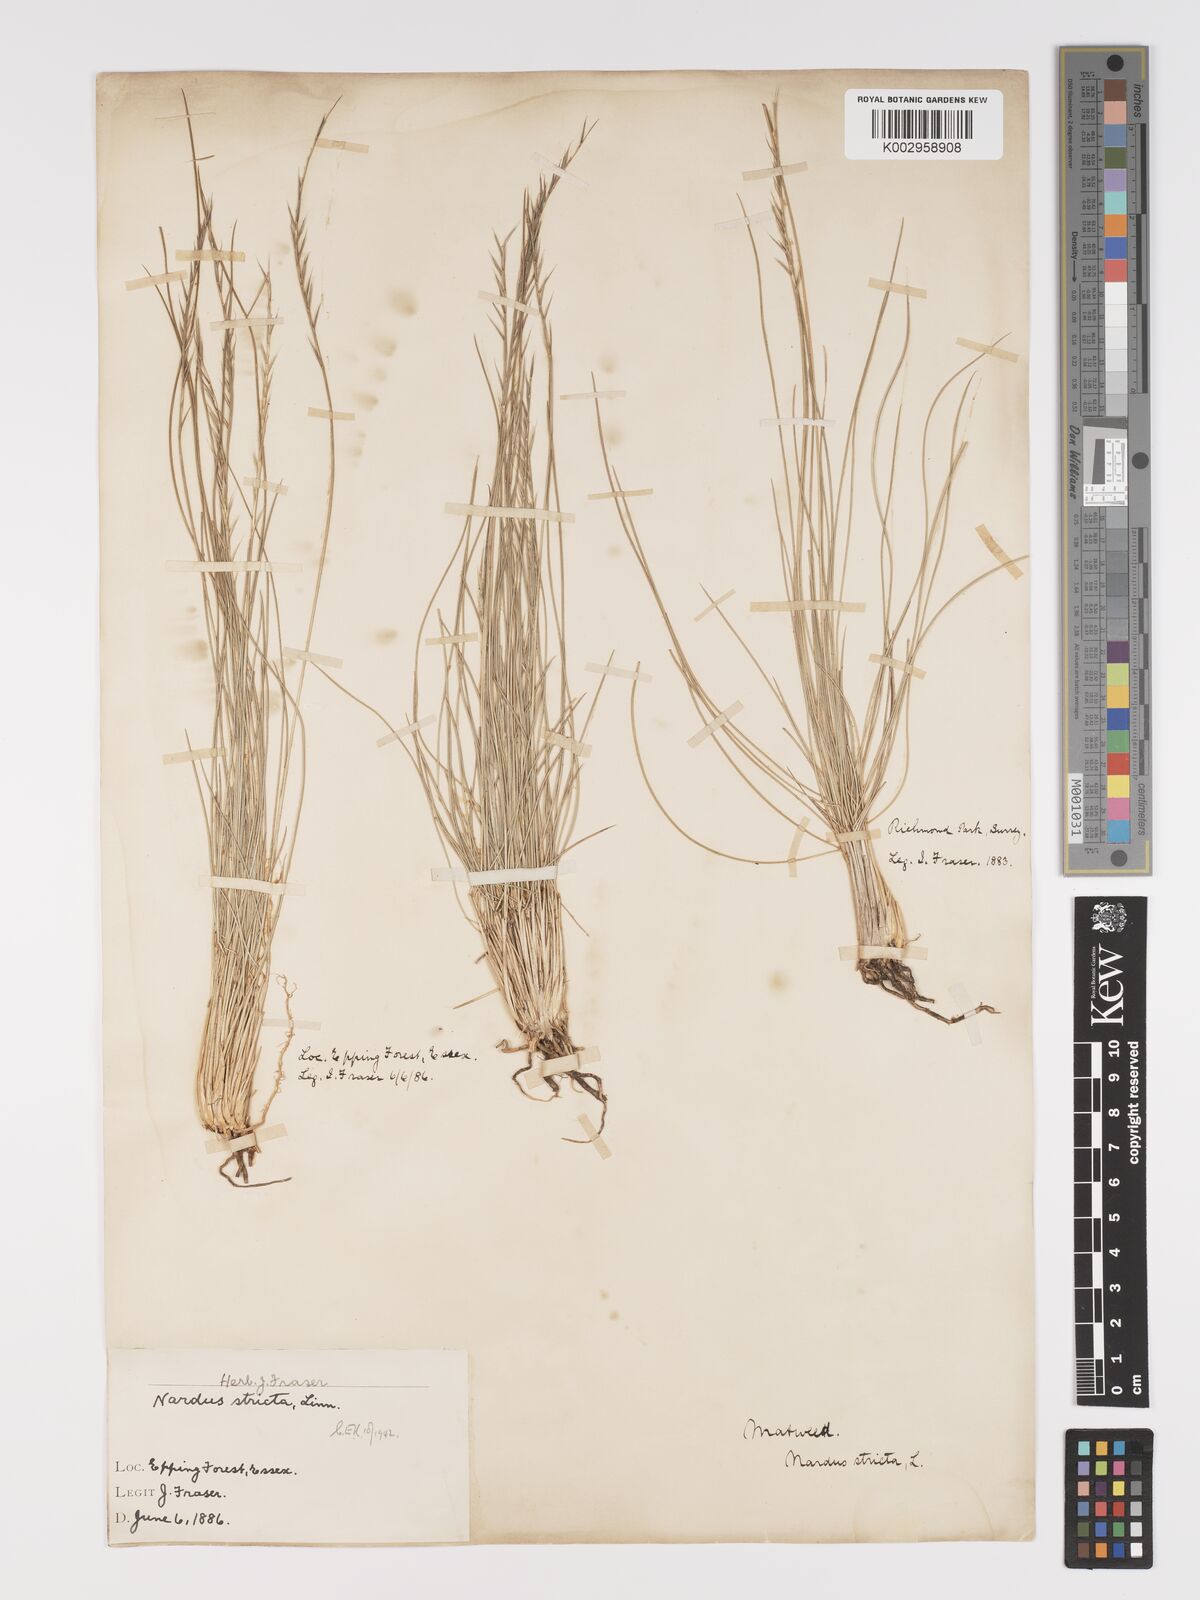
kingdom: Plantae
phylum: Tracheophyta
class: Liliopsida
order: Poales
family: Poaceae
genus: Nardus
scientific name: Nardus stricta
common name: Mat-grass
